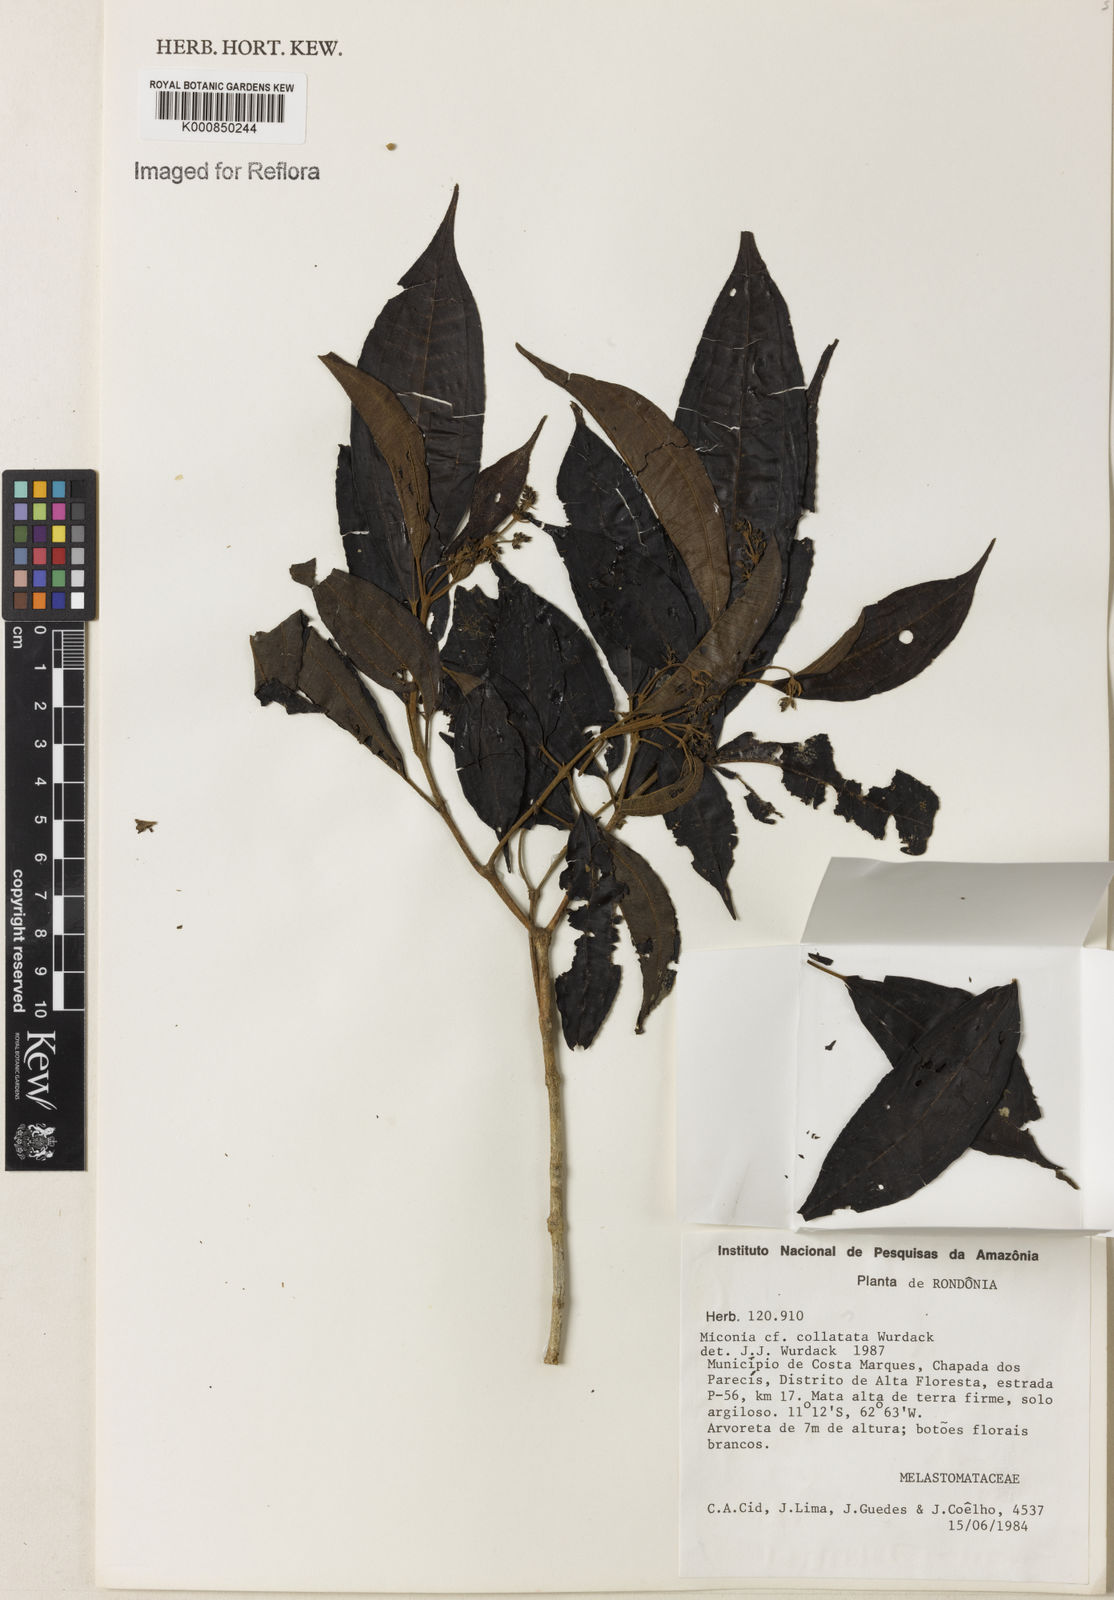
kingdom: Plantae
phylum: Tracheophyta
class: Magnoliopsida
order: Myrtales
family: Melastomataceae
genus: Miconia
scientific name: Miconia collatata
